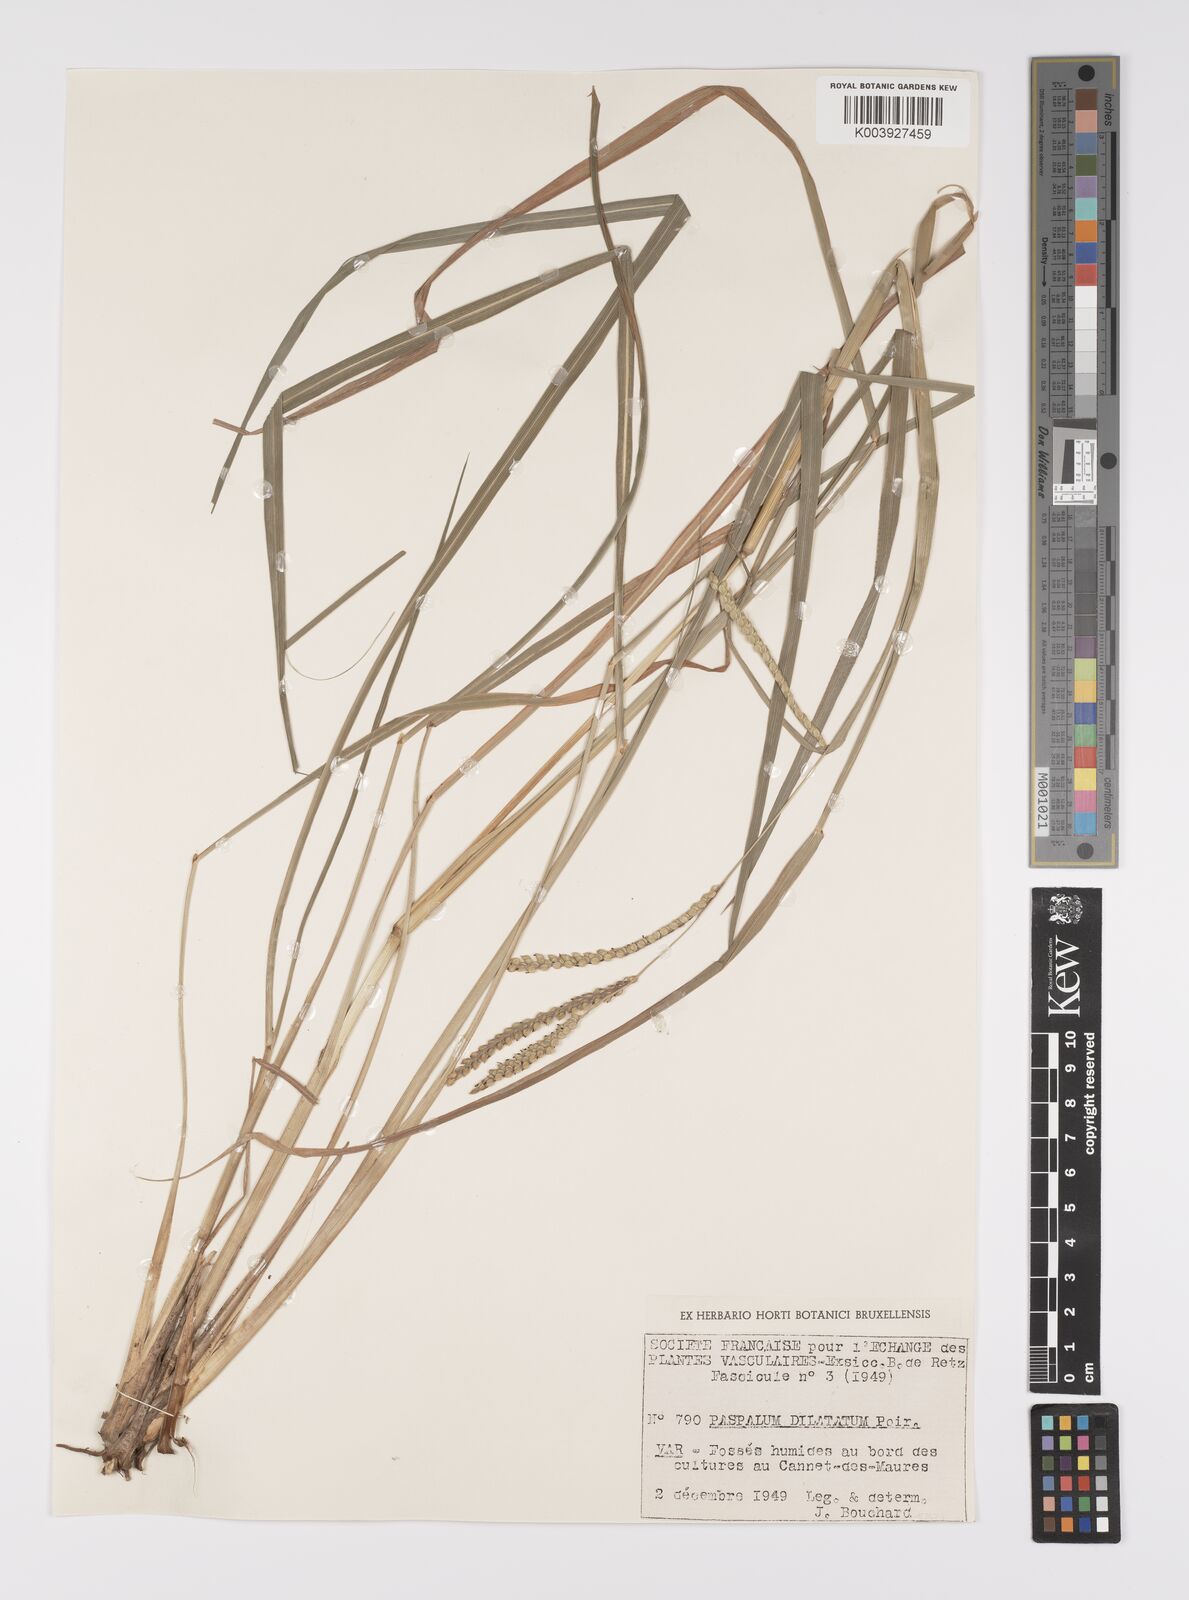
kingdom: Plantae
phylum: Tracheophyta
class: Liliopsida
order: Poales
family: Poaceae
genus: Paspalum
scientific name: Paspalum dilatatum
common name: Dallisgrass
